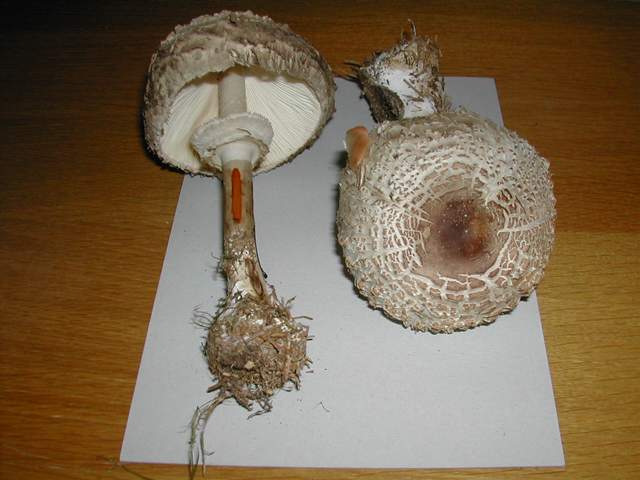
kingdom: Fungi
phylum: Basidiomycota
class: Agaricomycetes
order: Agaricales
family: Agaricaceae
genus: Chlorophyllum
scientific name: Chlorophyllum olivieri
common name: almindelig rabarberhat
